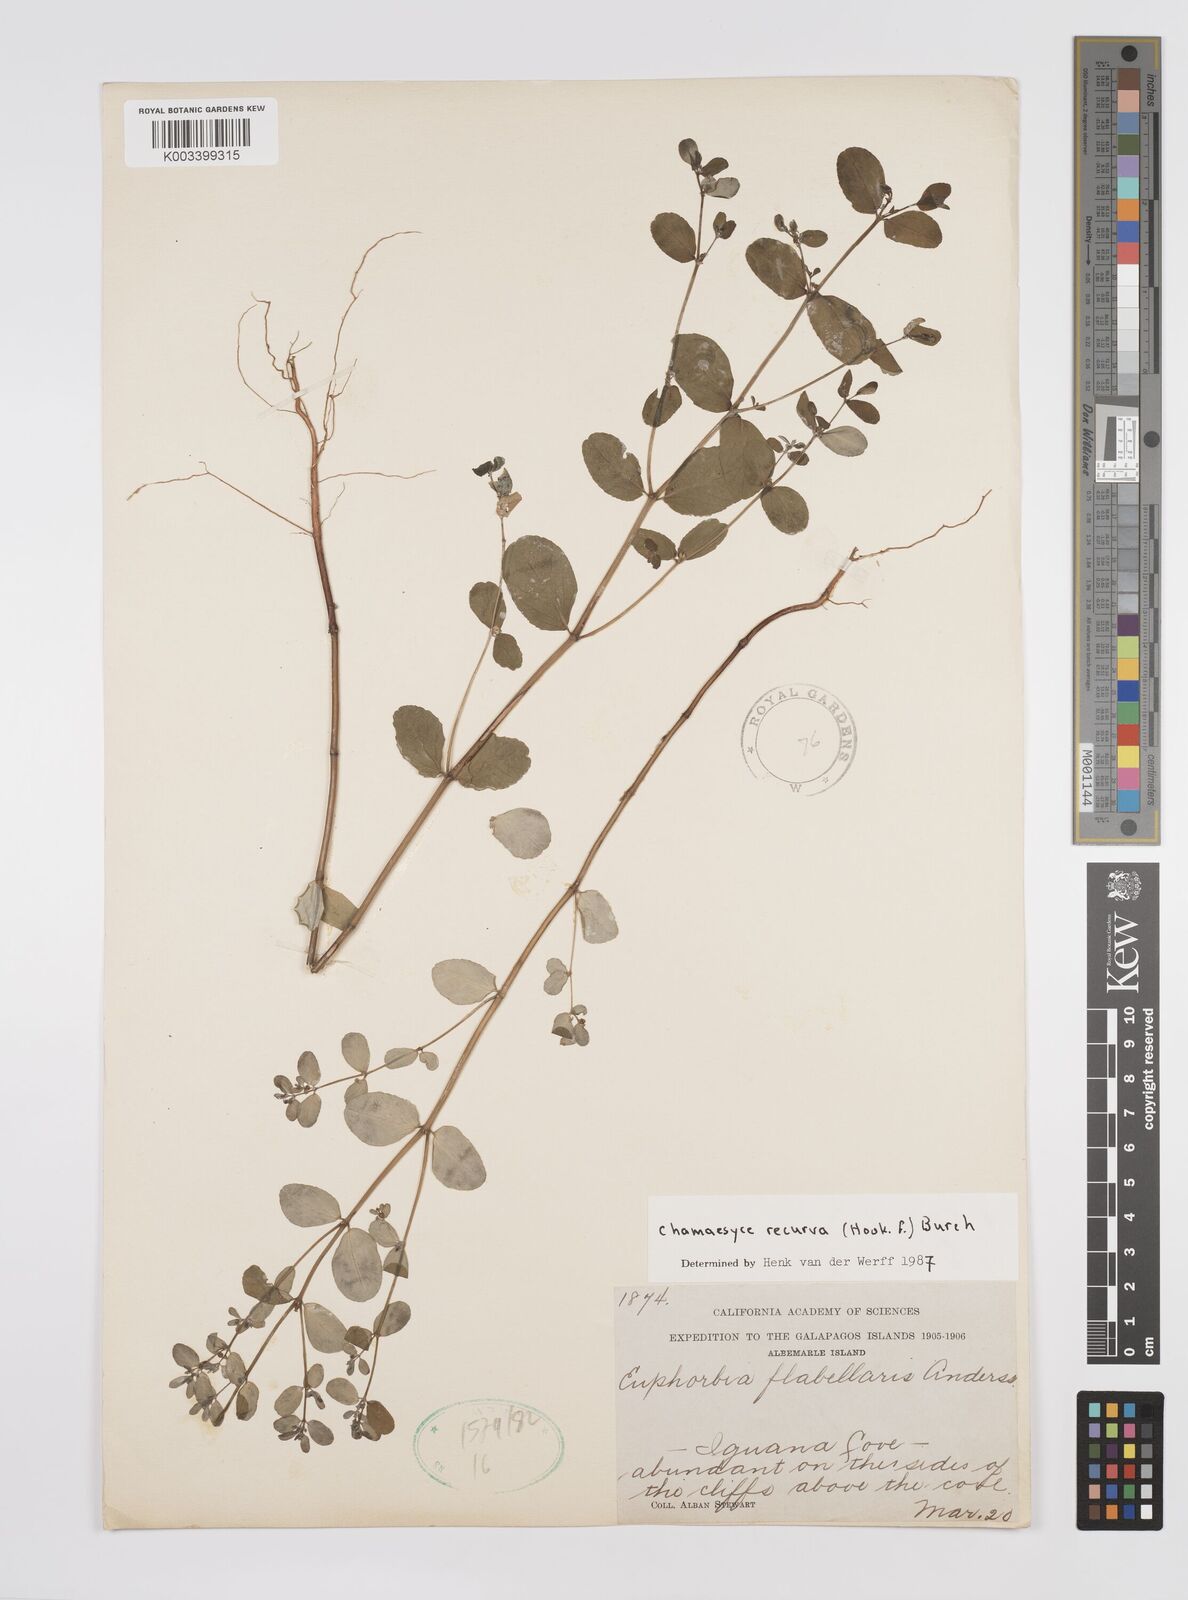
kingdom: Plantae
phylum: Tracheophyta
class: Magnoliopsida
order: Malpighiales
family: Euphorbiaceae
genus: Euphorbia
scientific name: Euphorbia recurva
